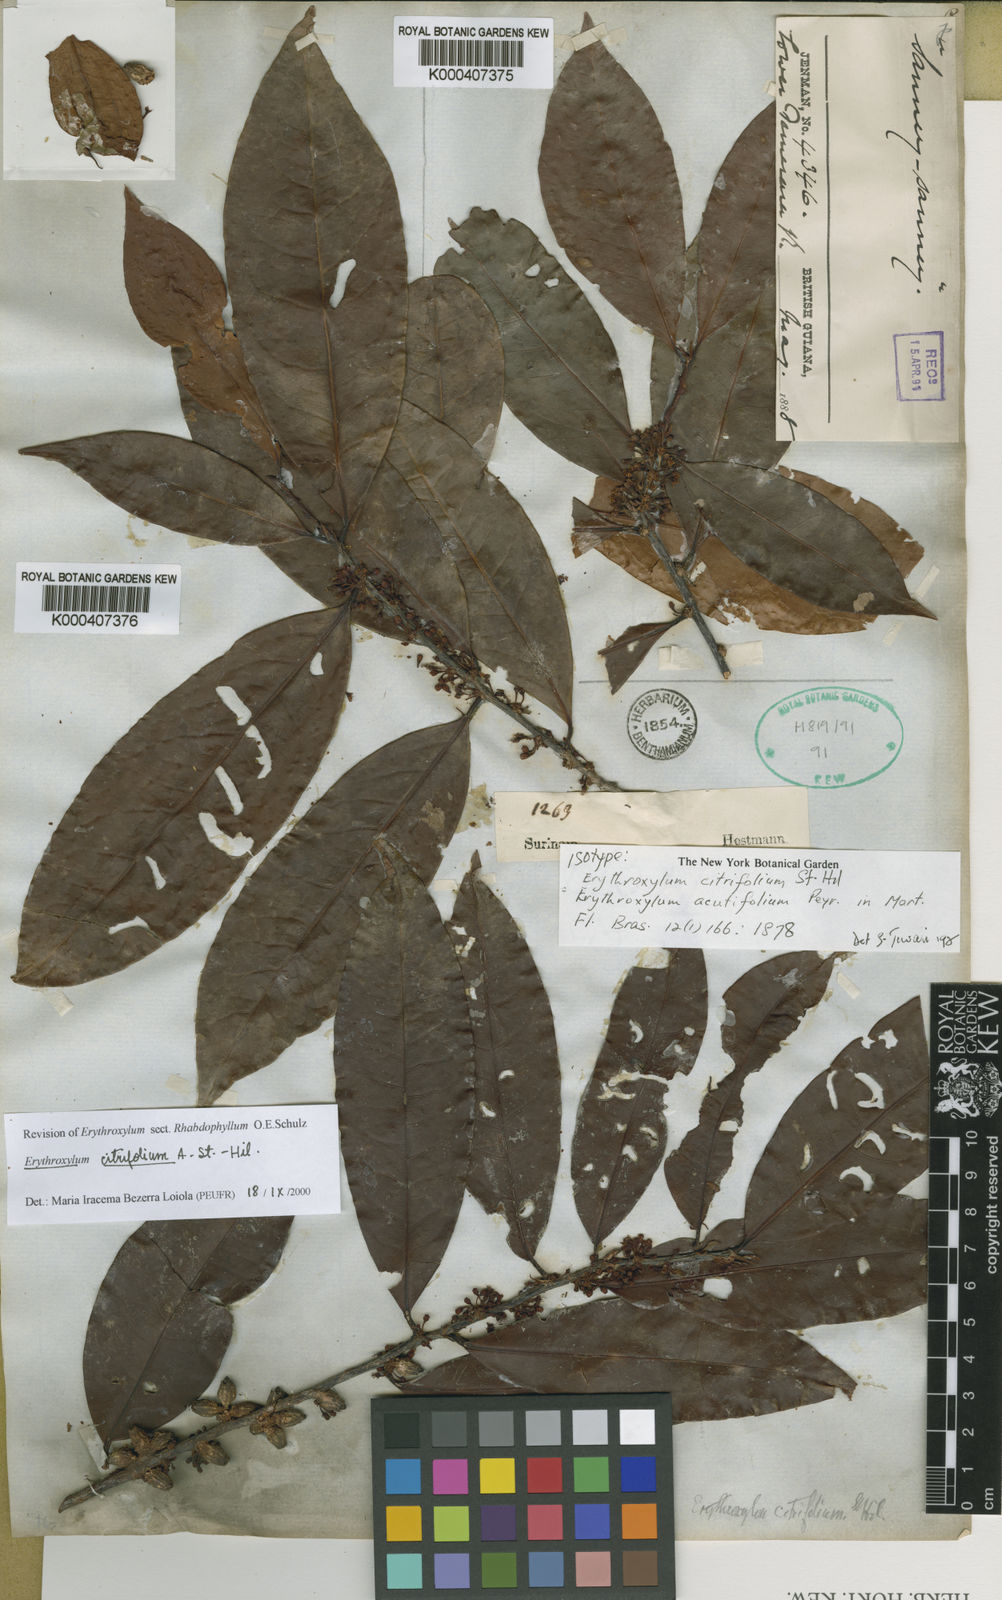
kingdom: Plantae
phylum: Tracheophyta
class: Magnoliopsida
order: Malpighiales
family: Erythroxylaceae
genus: Erythroxylum
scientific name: Erythroxylum citrifolium
